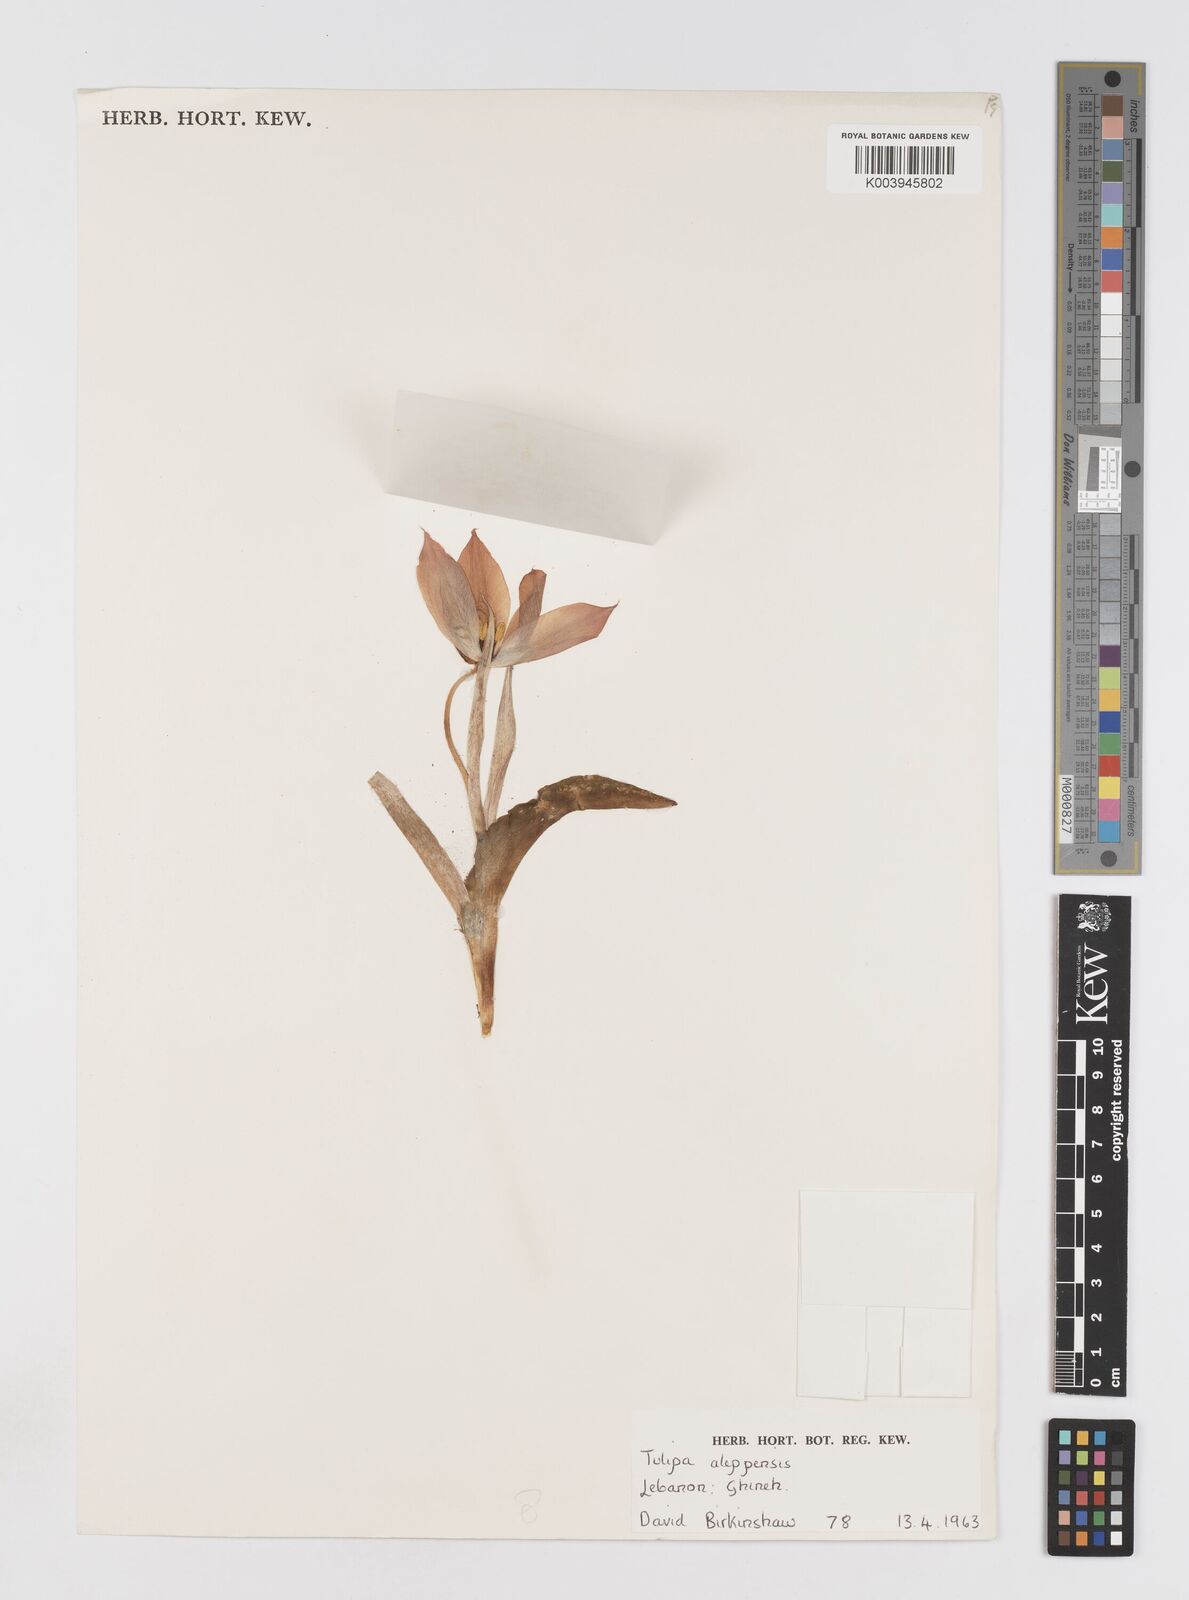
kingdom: Plantae
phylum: Tracheophyta
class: Liliopsida
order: Liliales
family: Liliaceae
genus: Tulipa
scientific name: Tulipa aleppensis
